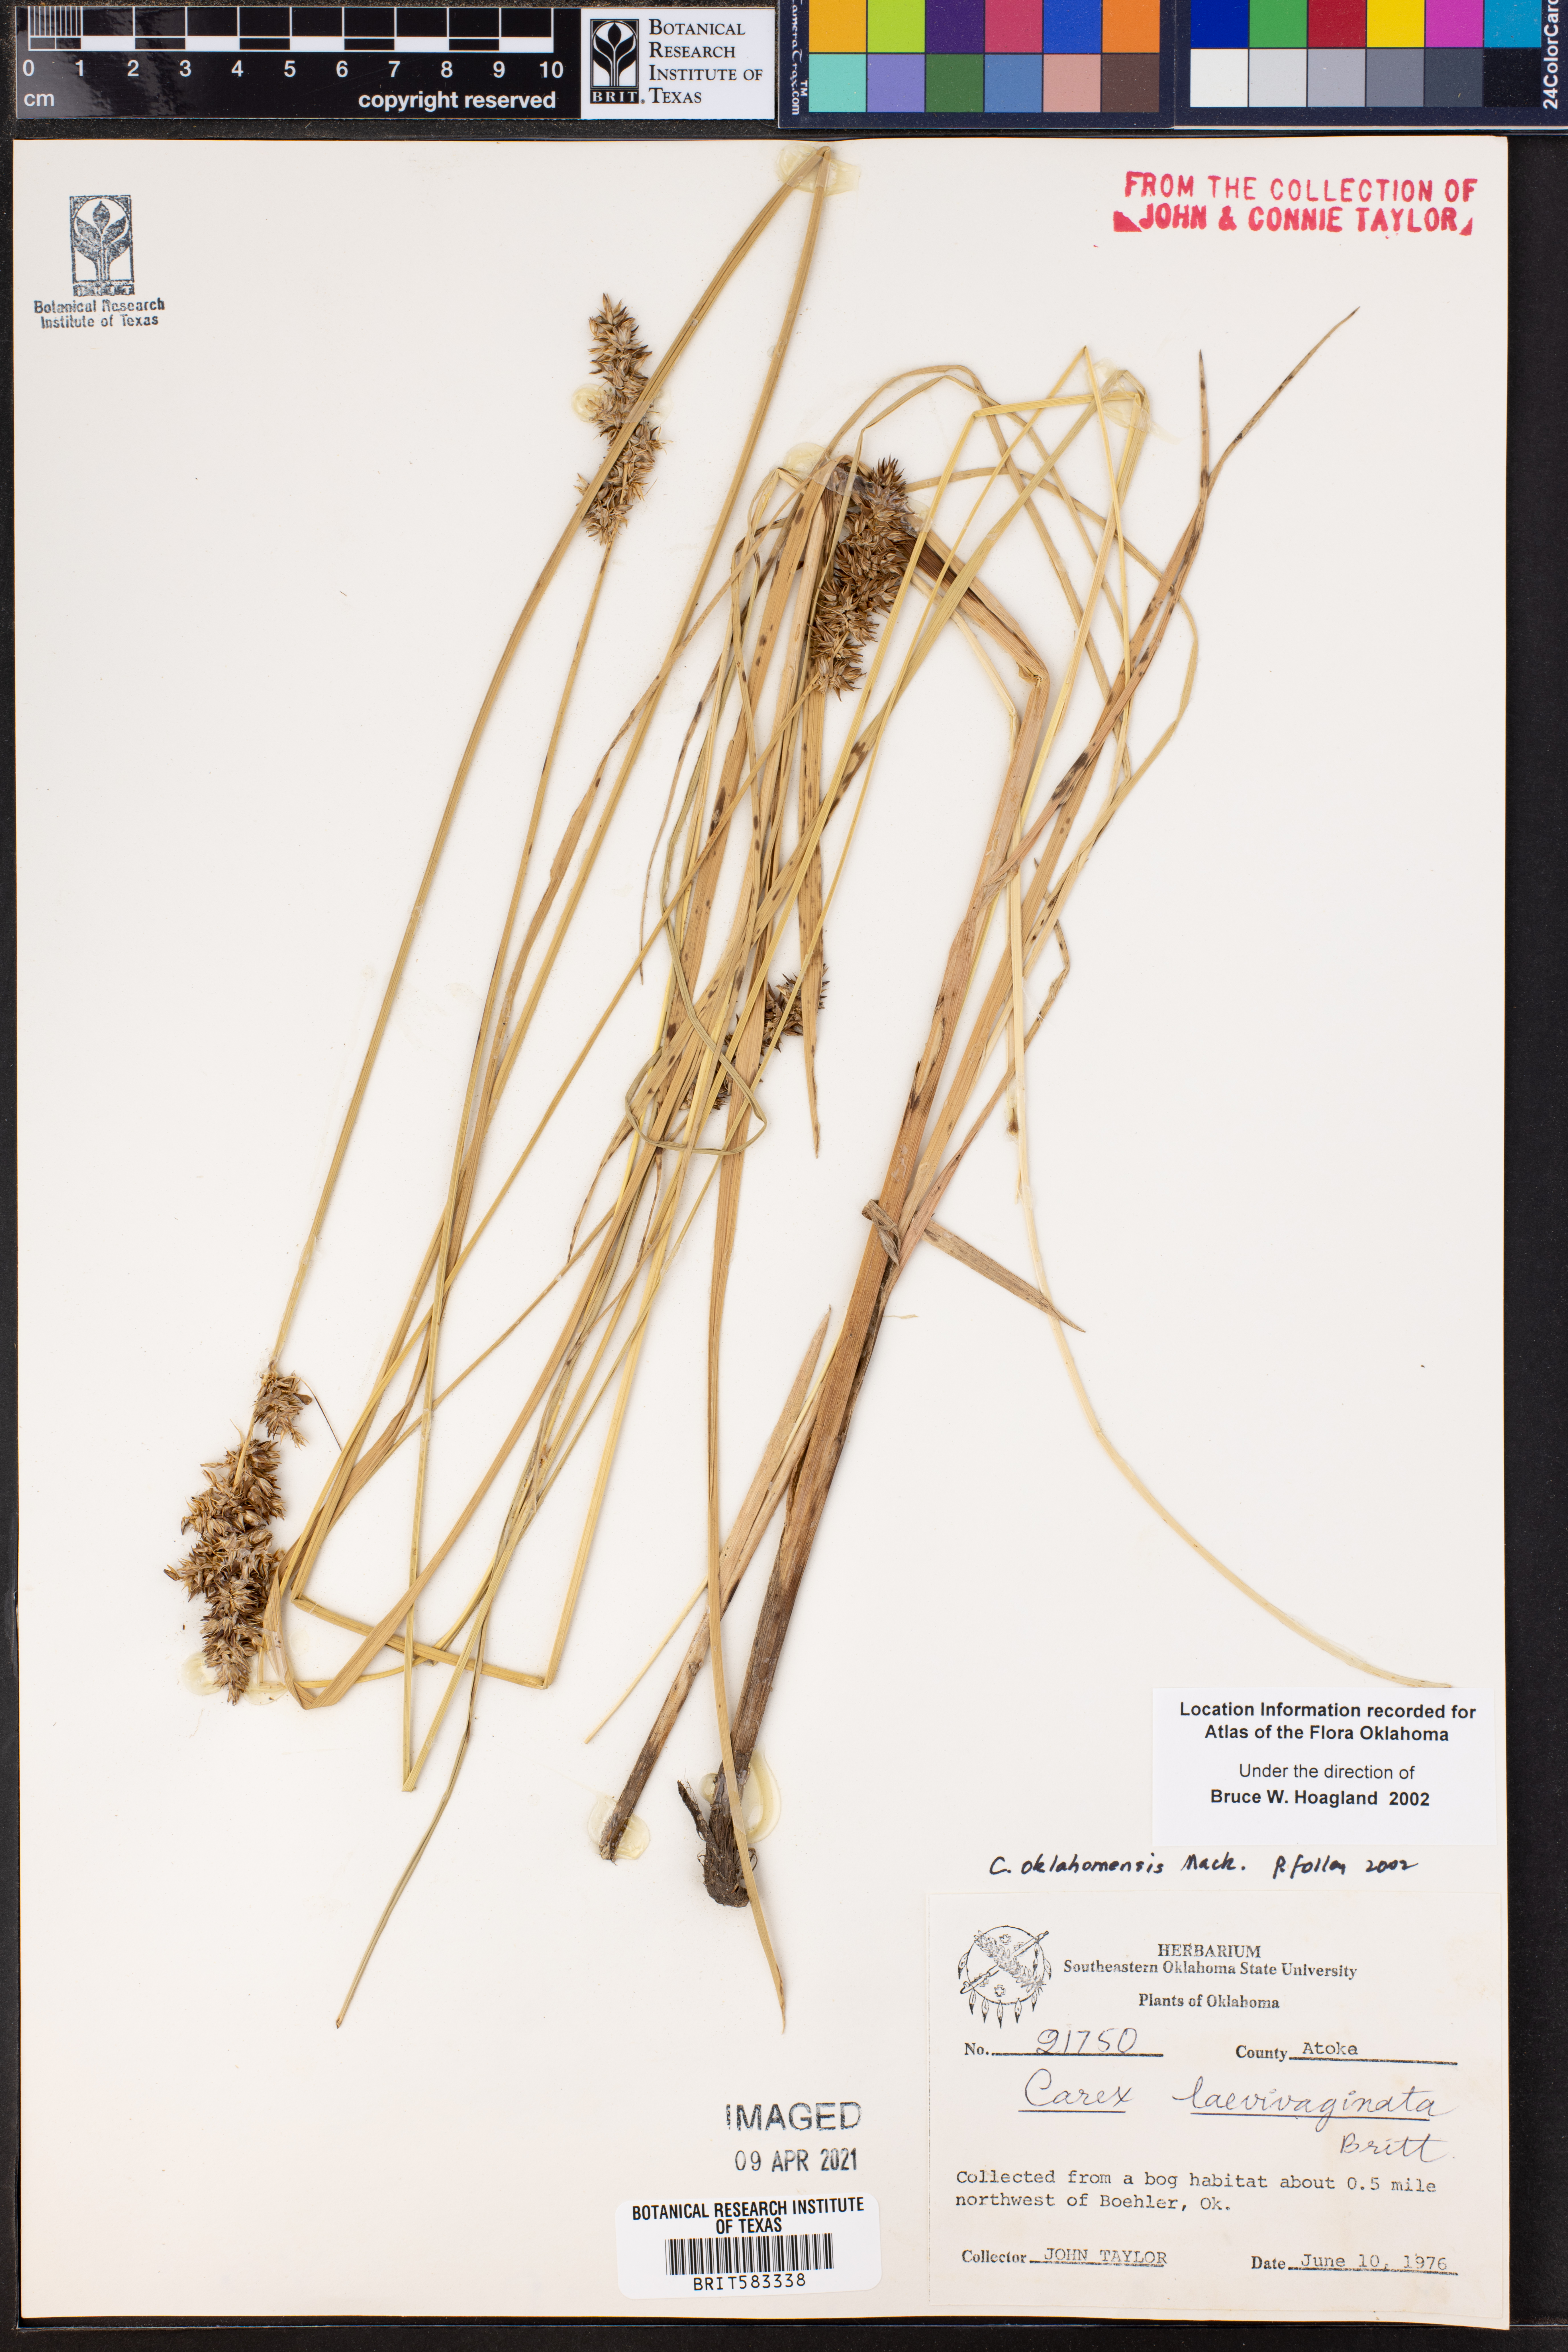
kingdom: Plantae
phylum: Tracheophyta
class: Liliopsida
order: Poales
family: Cyperaceae
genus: Carex
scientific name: Carex oklahomensis
